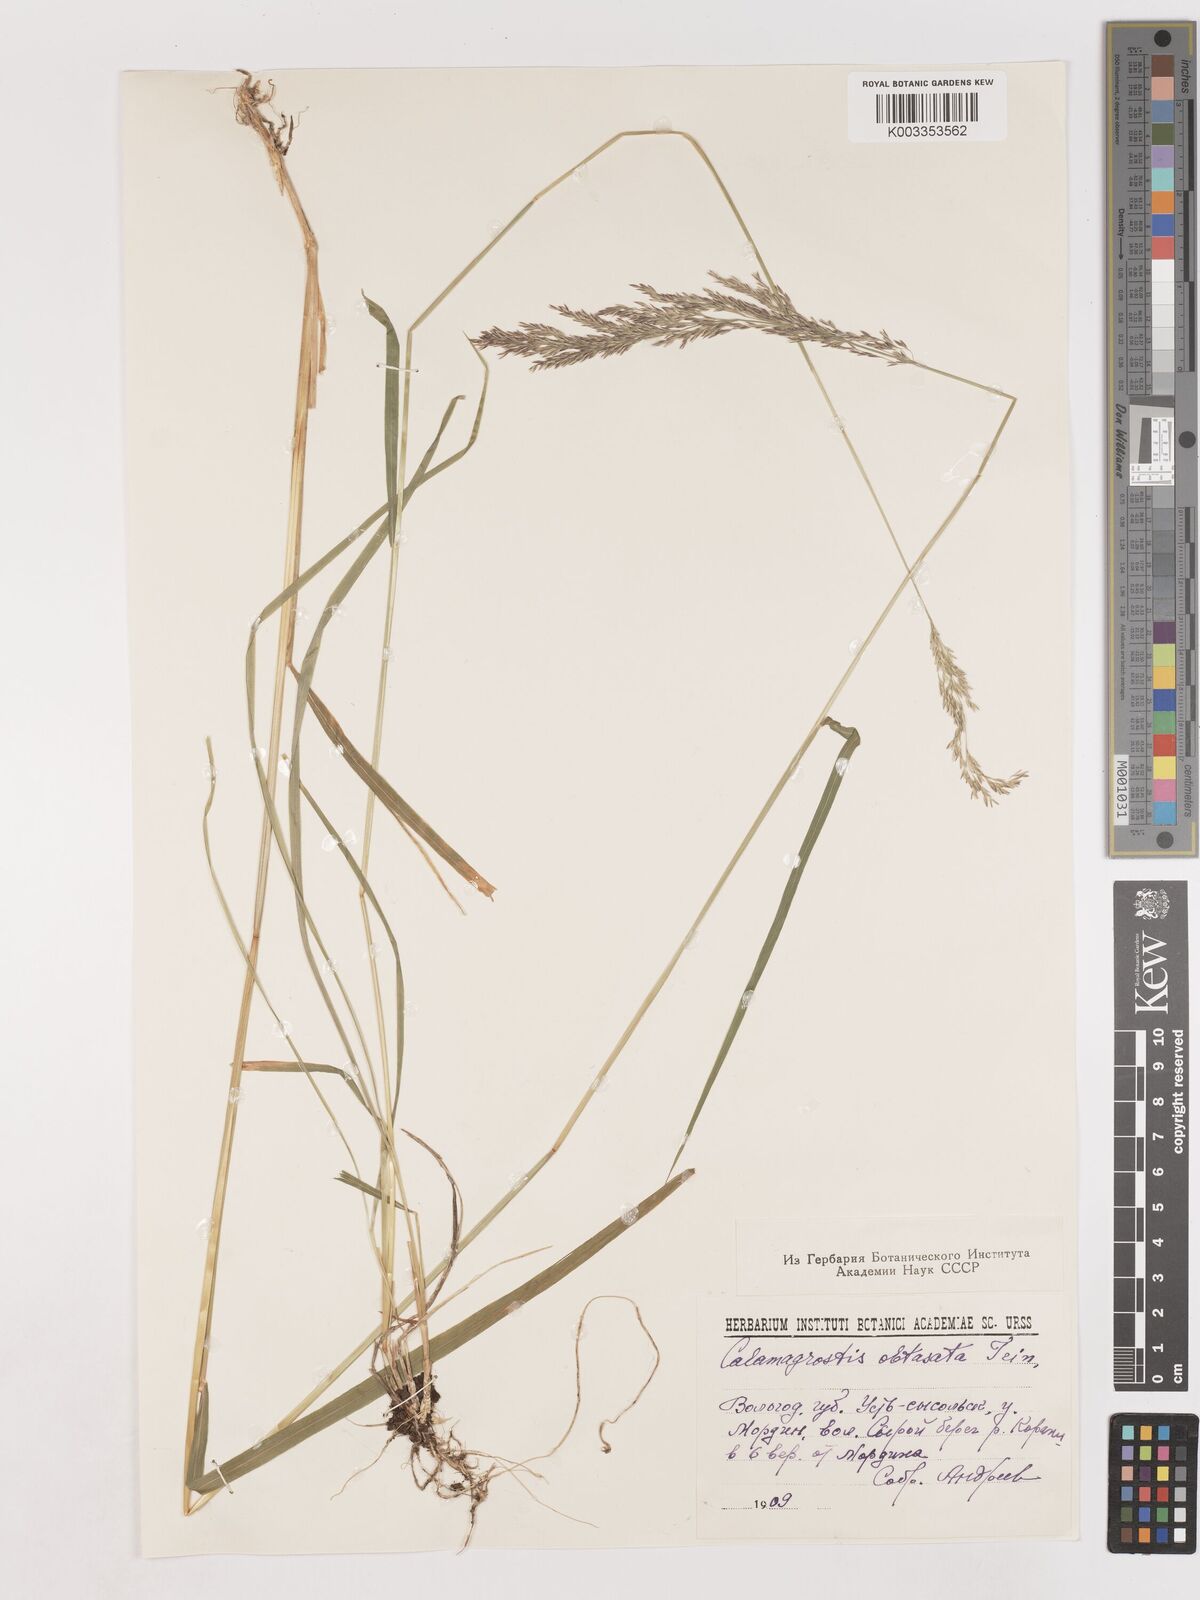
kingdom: Plantae
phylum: Tracheophyta
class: Liliopsida
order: Poales
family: Poaceae
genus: Cinnagrostis
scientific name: Cinnagrostis spicigera
